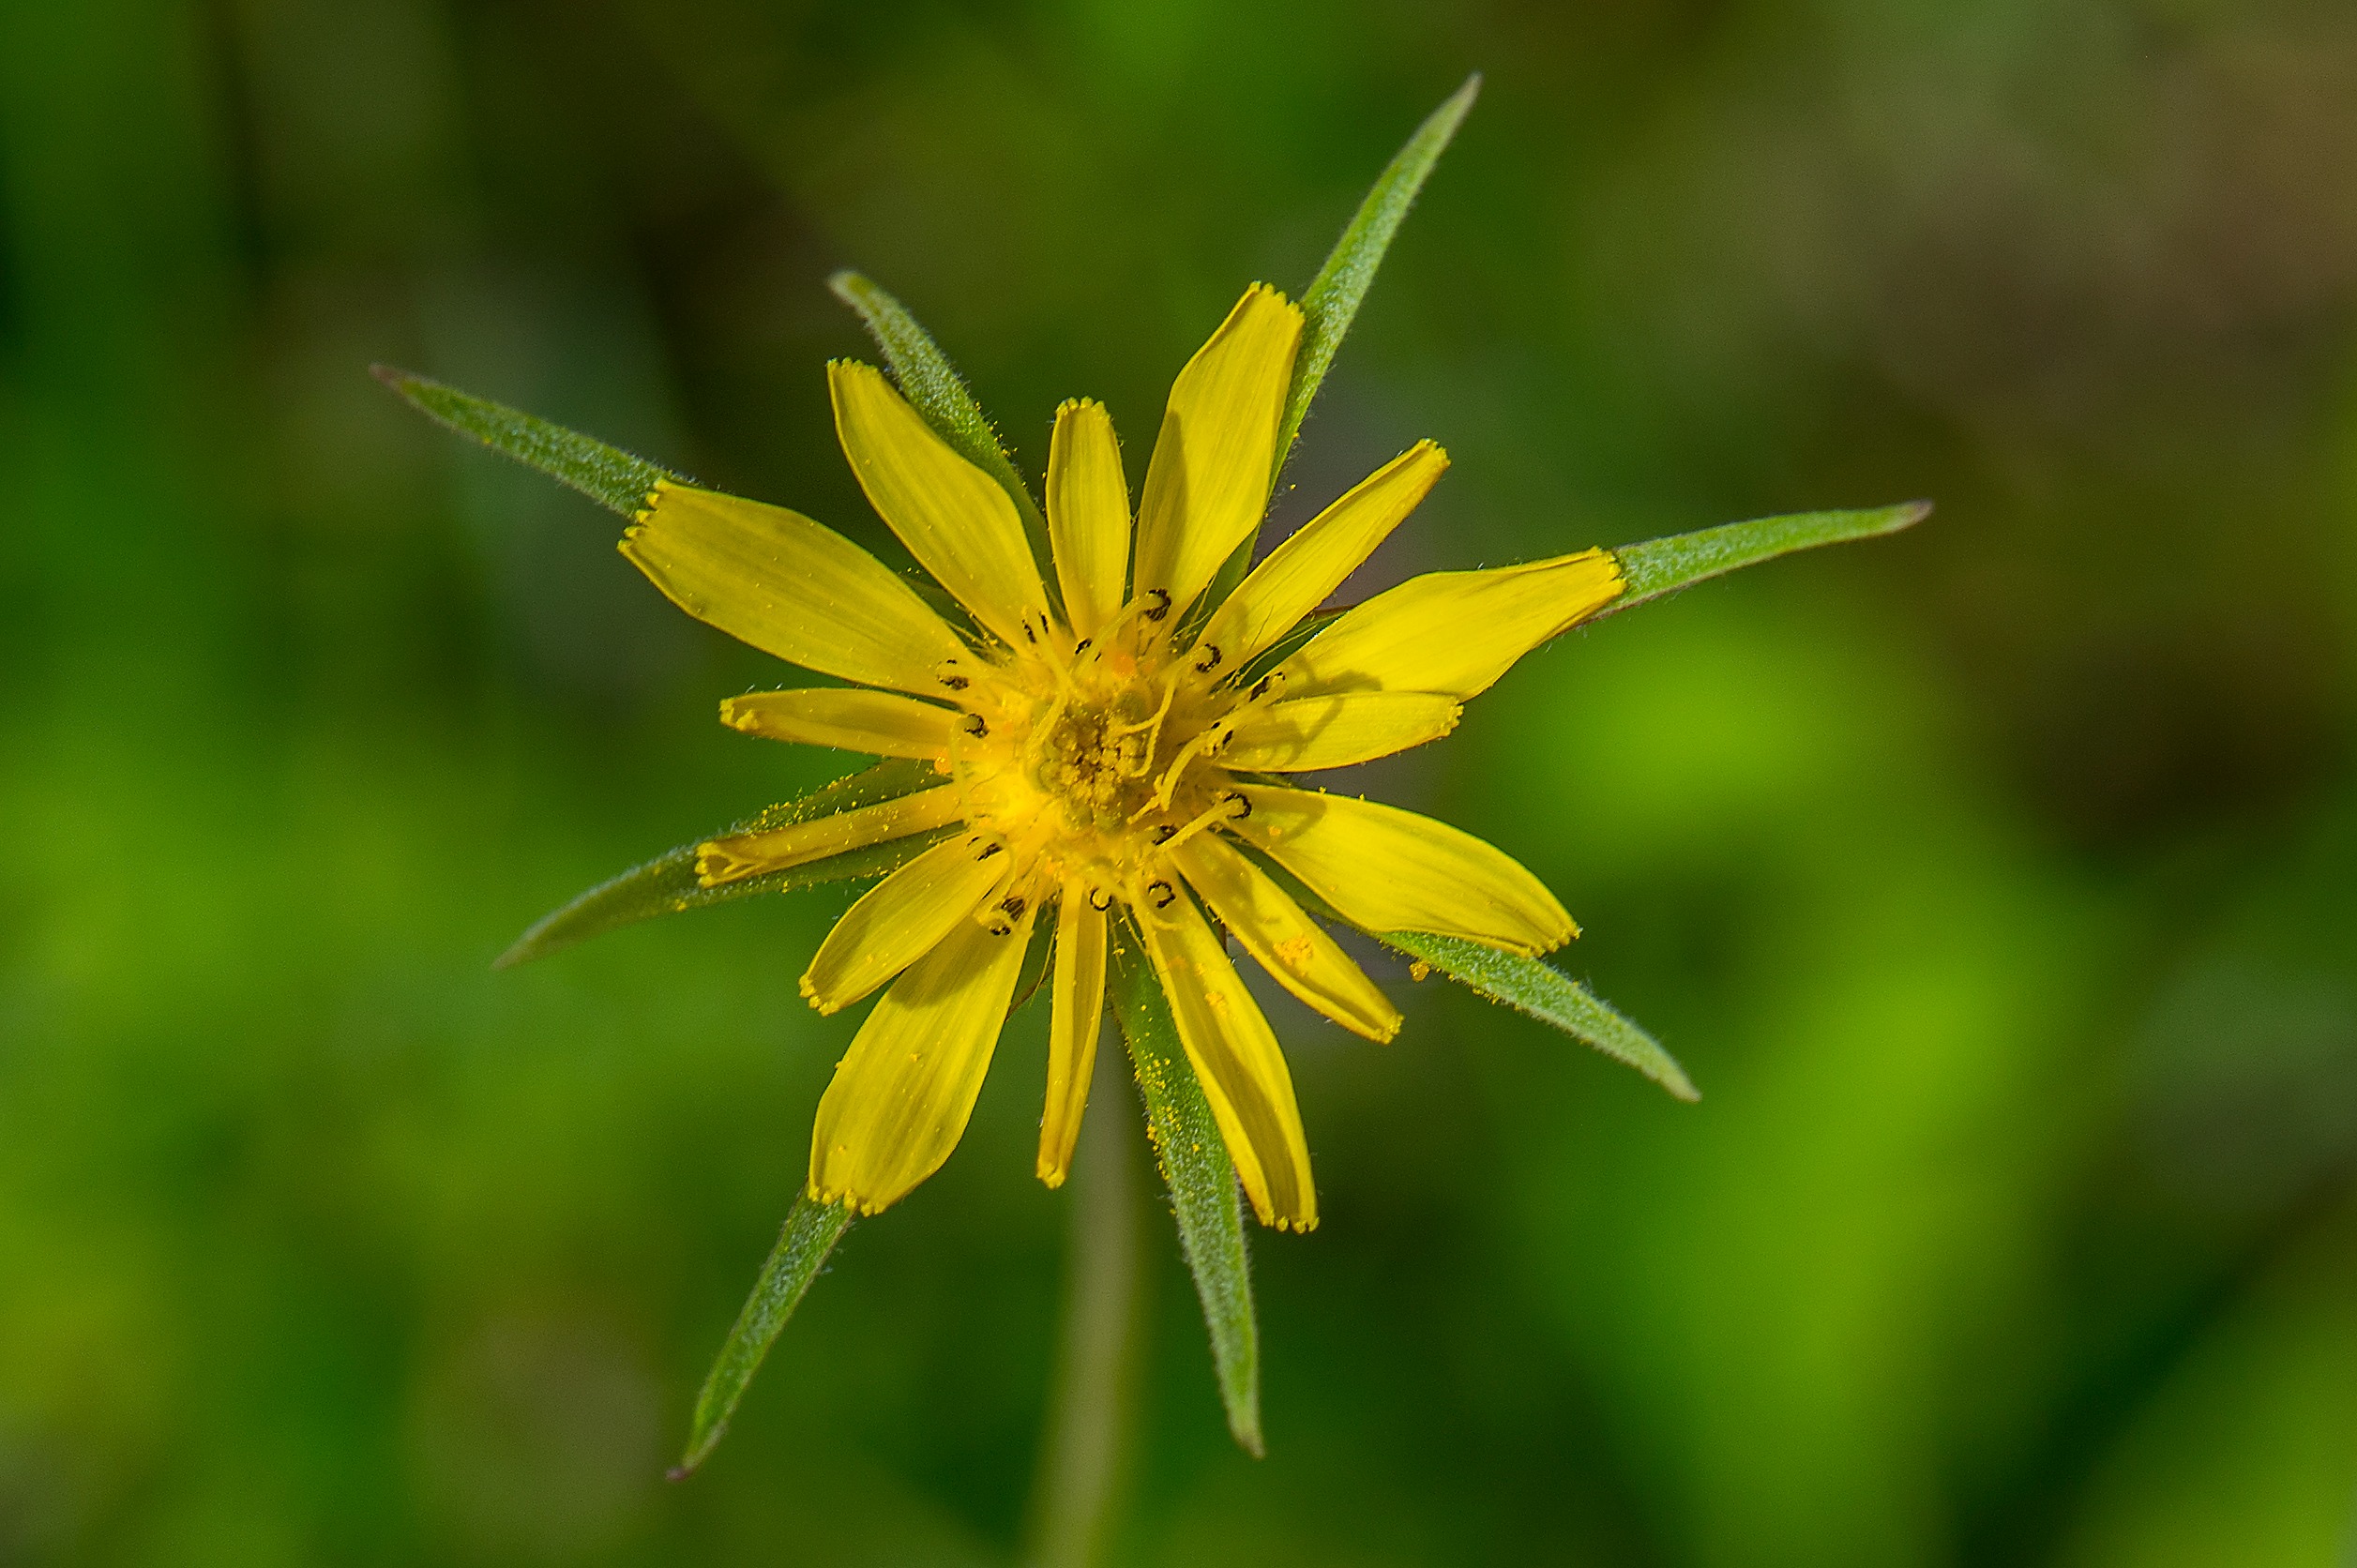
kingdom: Plantae
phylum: Tracheophyta
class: Magnoliopsida
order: Asterales
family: Asteraceae
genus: Tragopogon
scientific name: Tragopogon minor
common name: Småkronet gedeskæg
